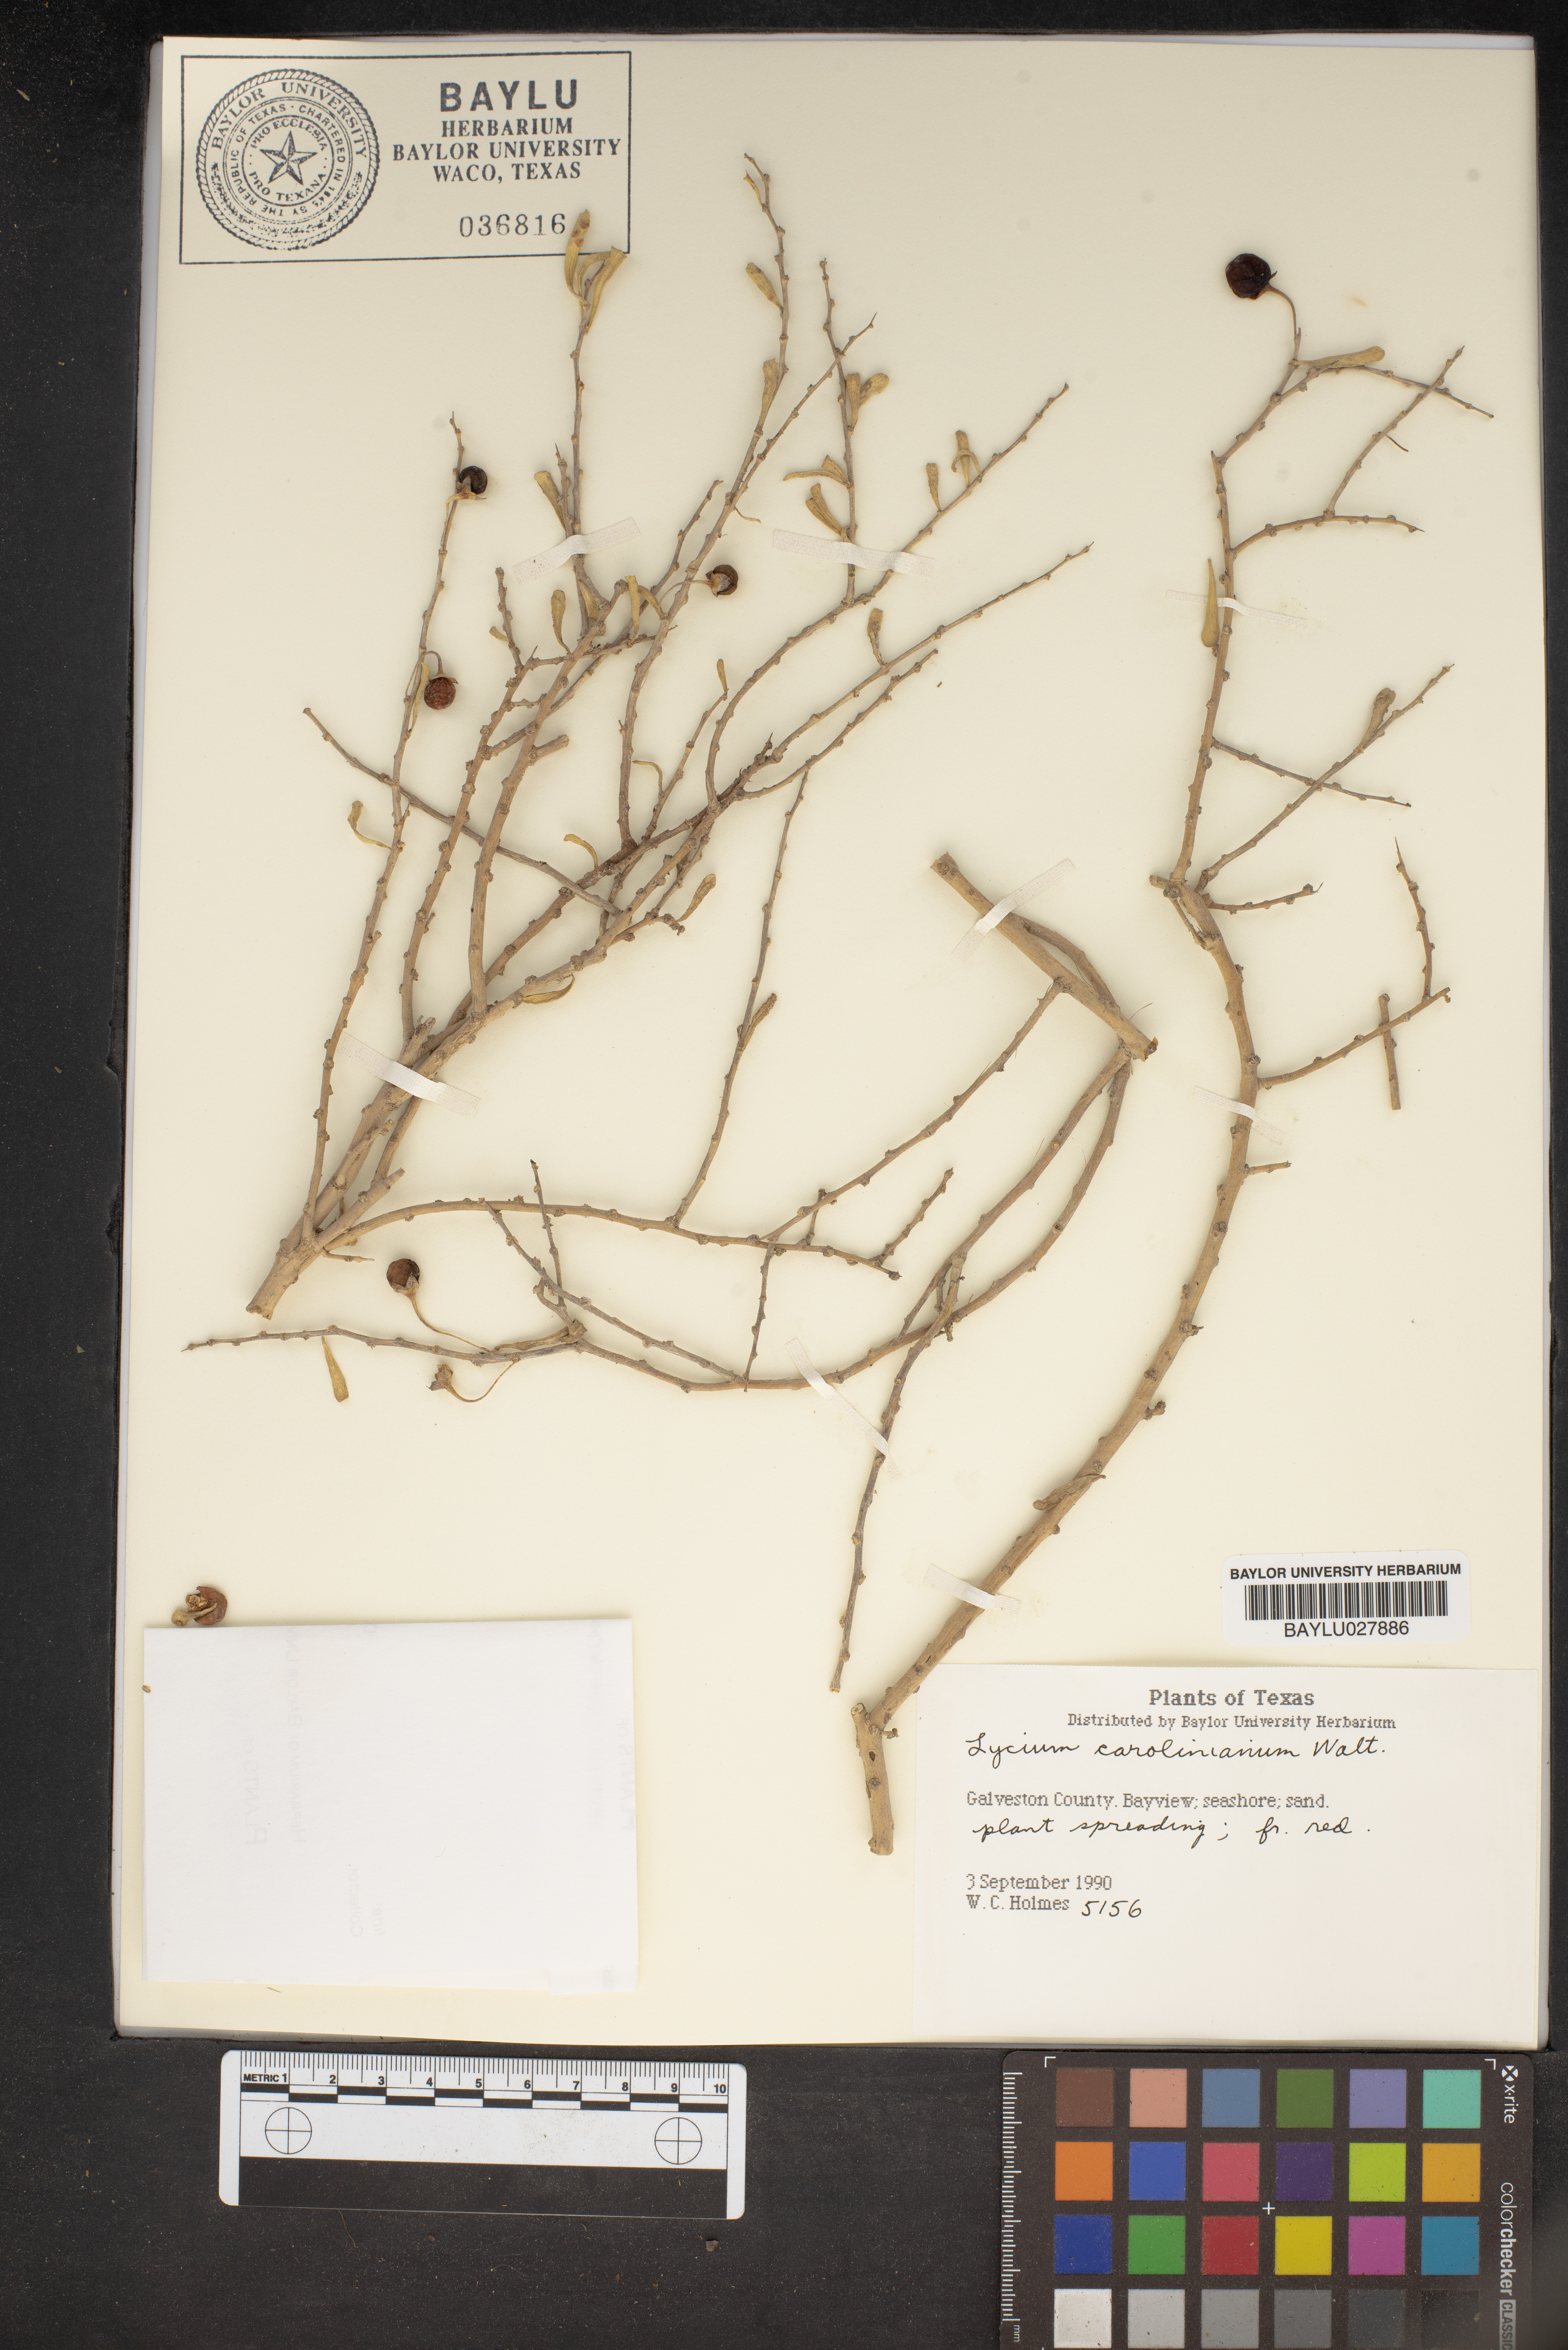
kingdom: Plantae
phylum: Tracheophyta
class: Magnoliopsida
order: Solanales
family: Solanaceae
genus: Lycium
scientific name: Lycium carolinianum
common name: Christmasberry
